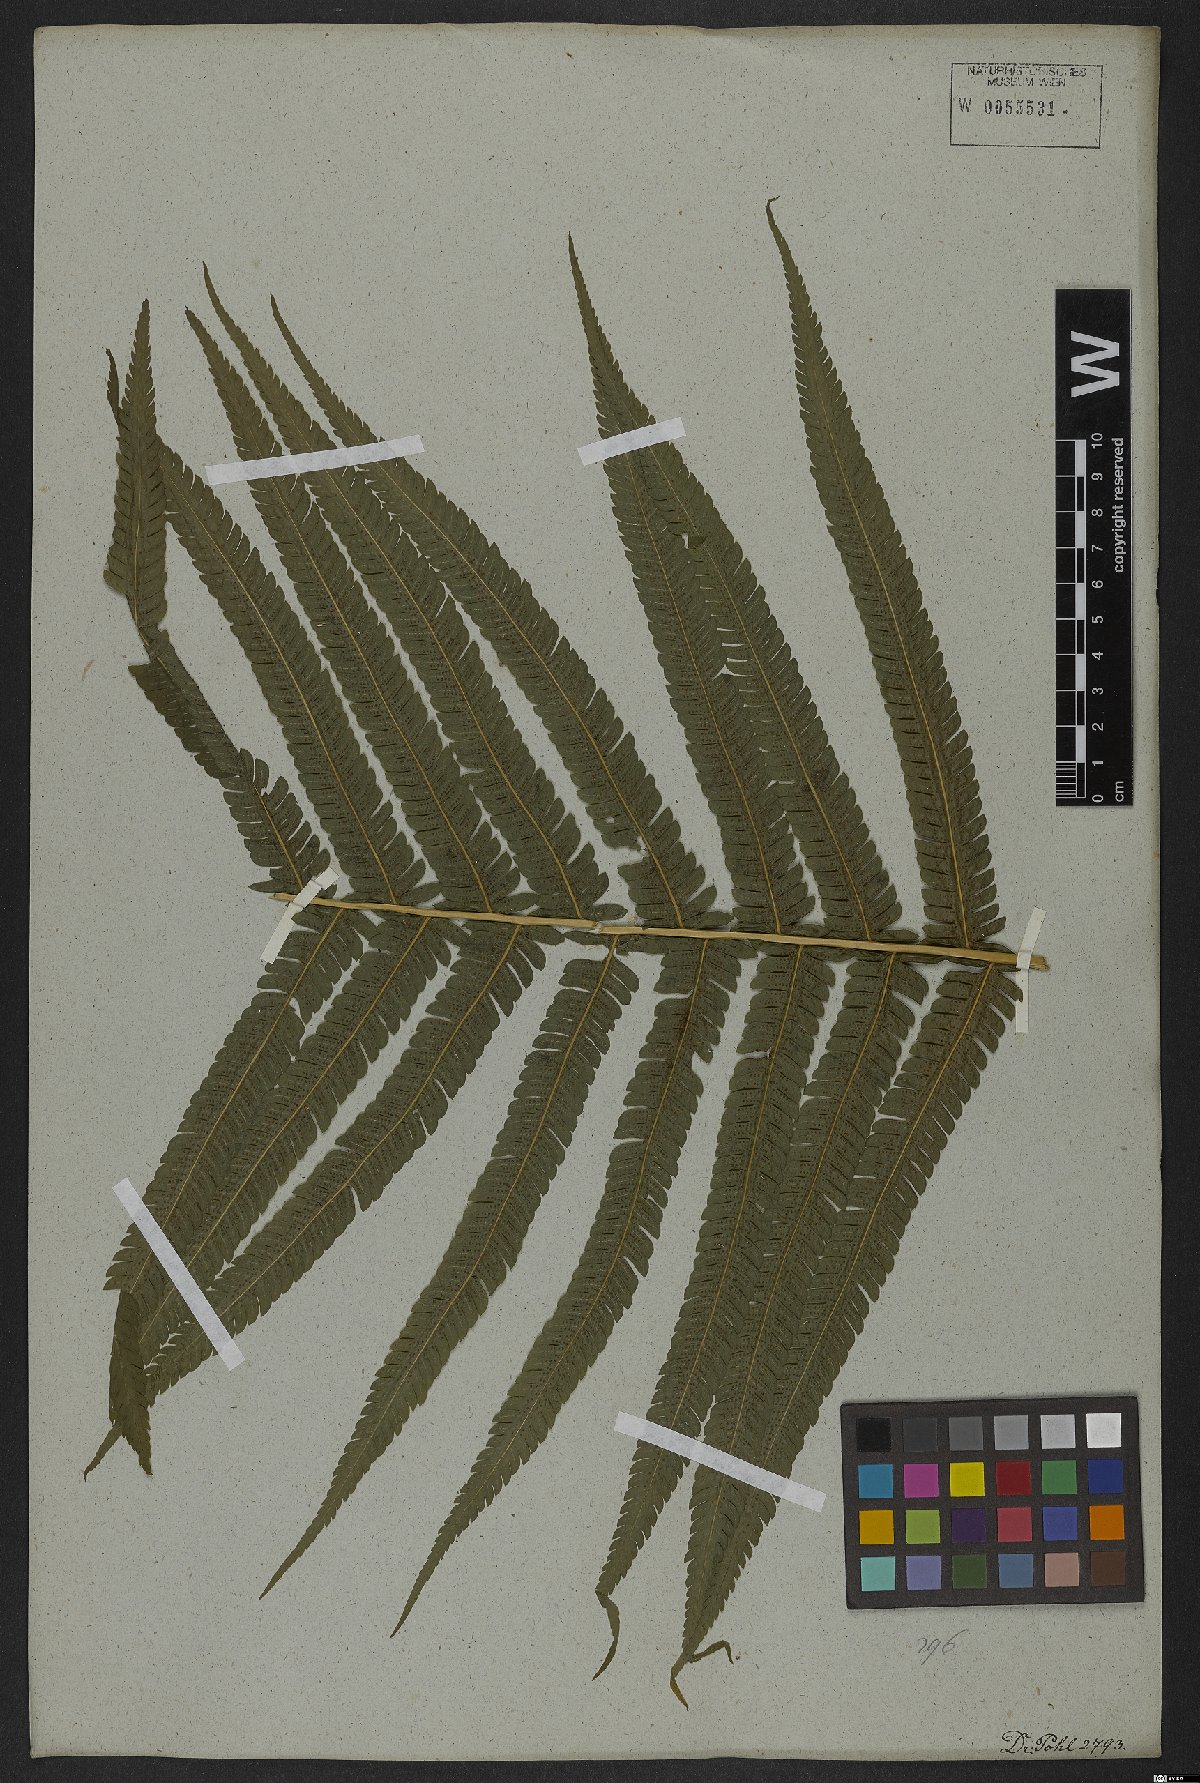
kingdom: Plantae
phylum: Tracheophyta
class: Polypodiopsida
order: Polypodiales
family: Thelypteridaceae
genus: Pelazoneuron
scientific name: Pelazoneuron patens
